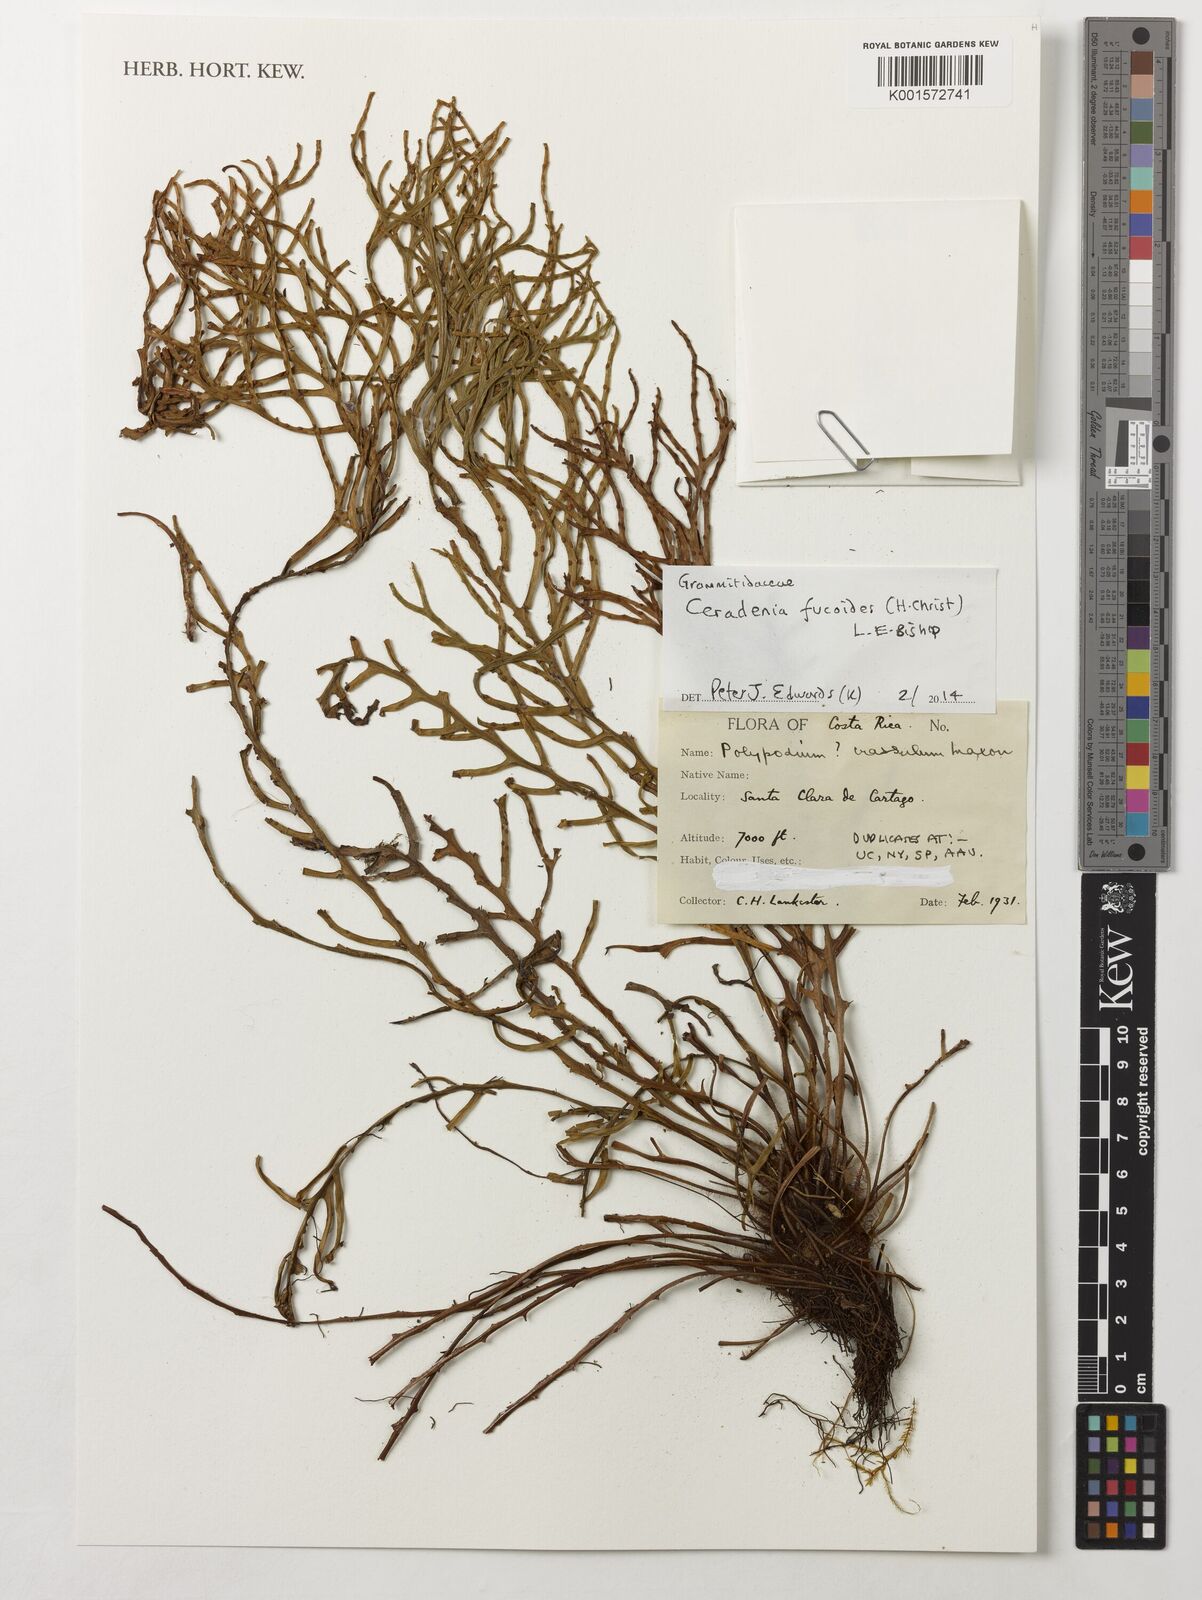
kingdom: Plantae
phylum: Tracheophyta
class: Polypodiopsida
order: Polypodiales
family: Polypodiaceae
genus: Ceradenia
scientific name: Ceradenia fucoides
